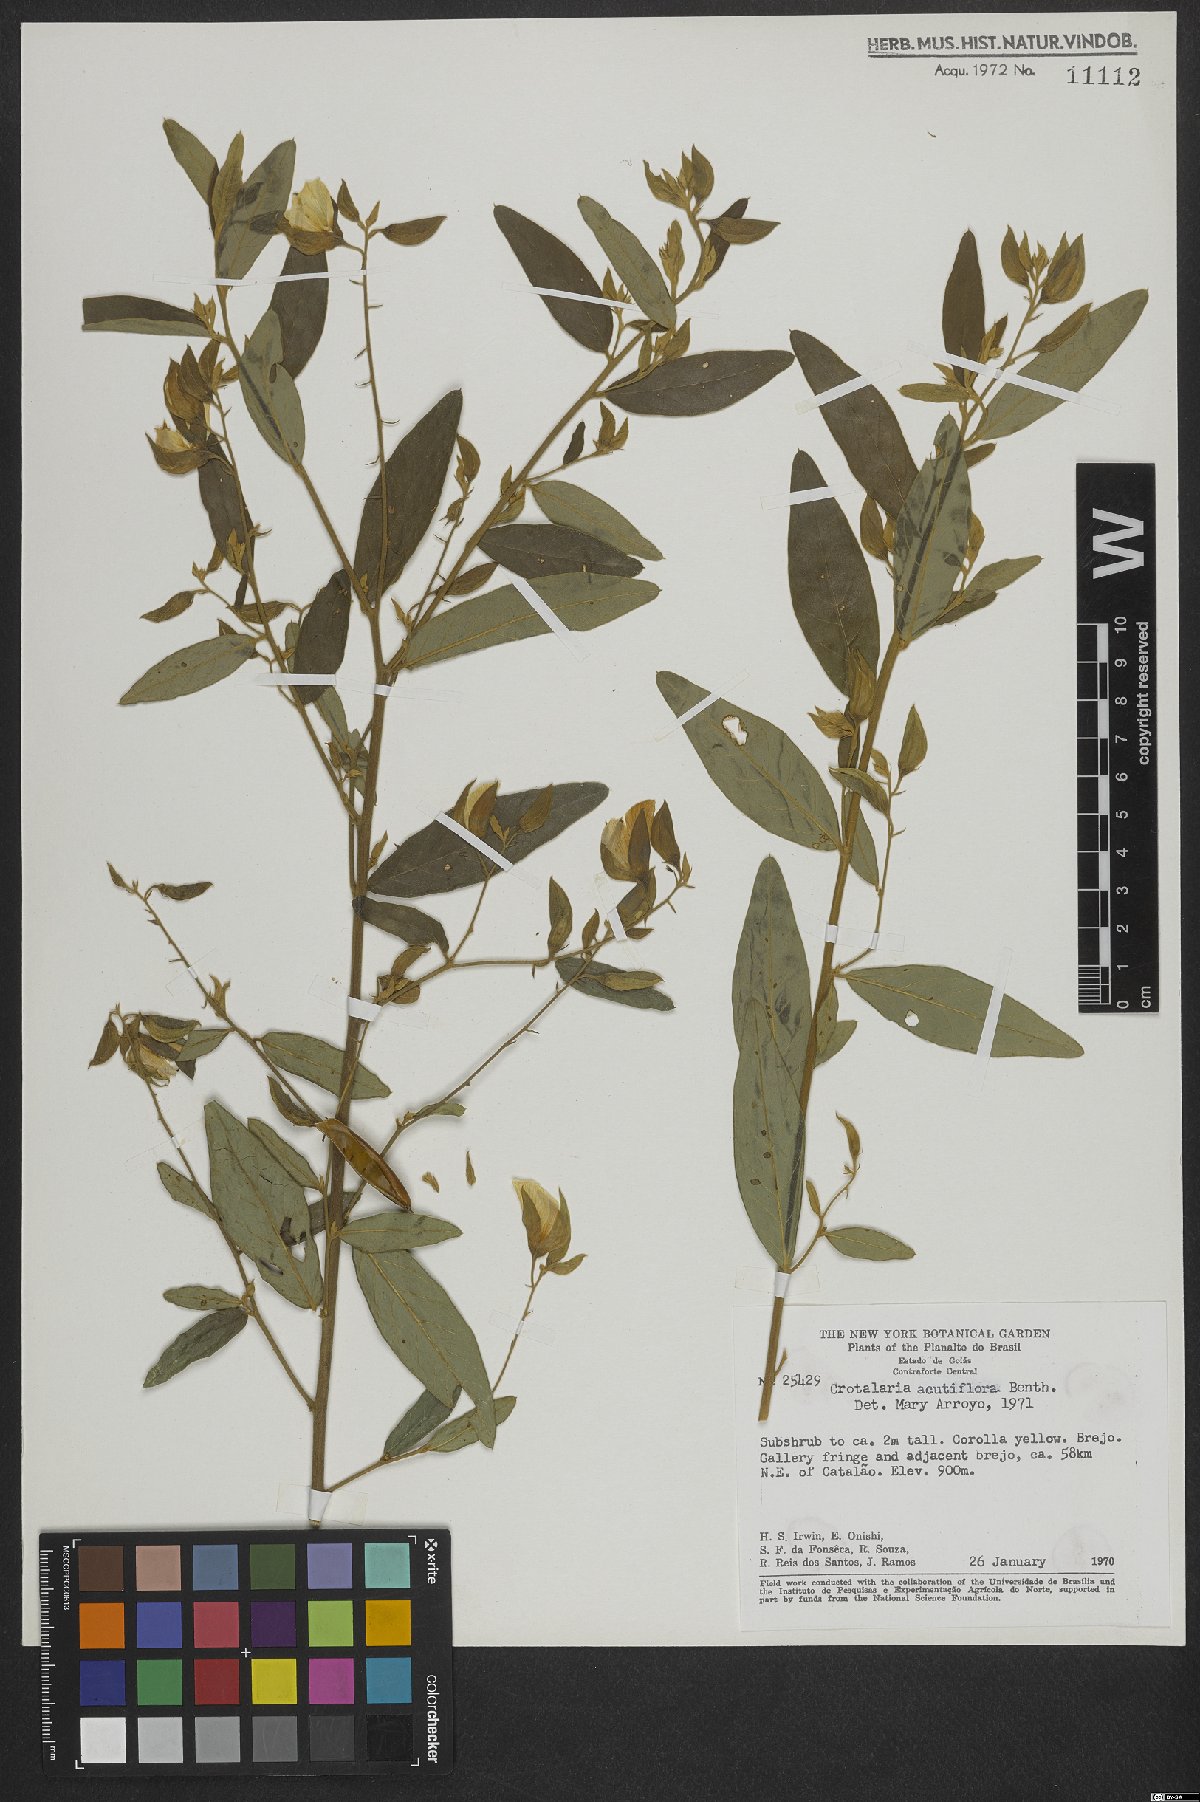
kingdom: Plantae
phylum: Tracheophyta
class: Magnoliopsida
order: Fabales
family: Fabaceae
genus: Crotalaria
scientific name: Crotalaria grandiflora
